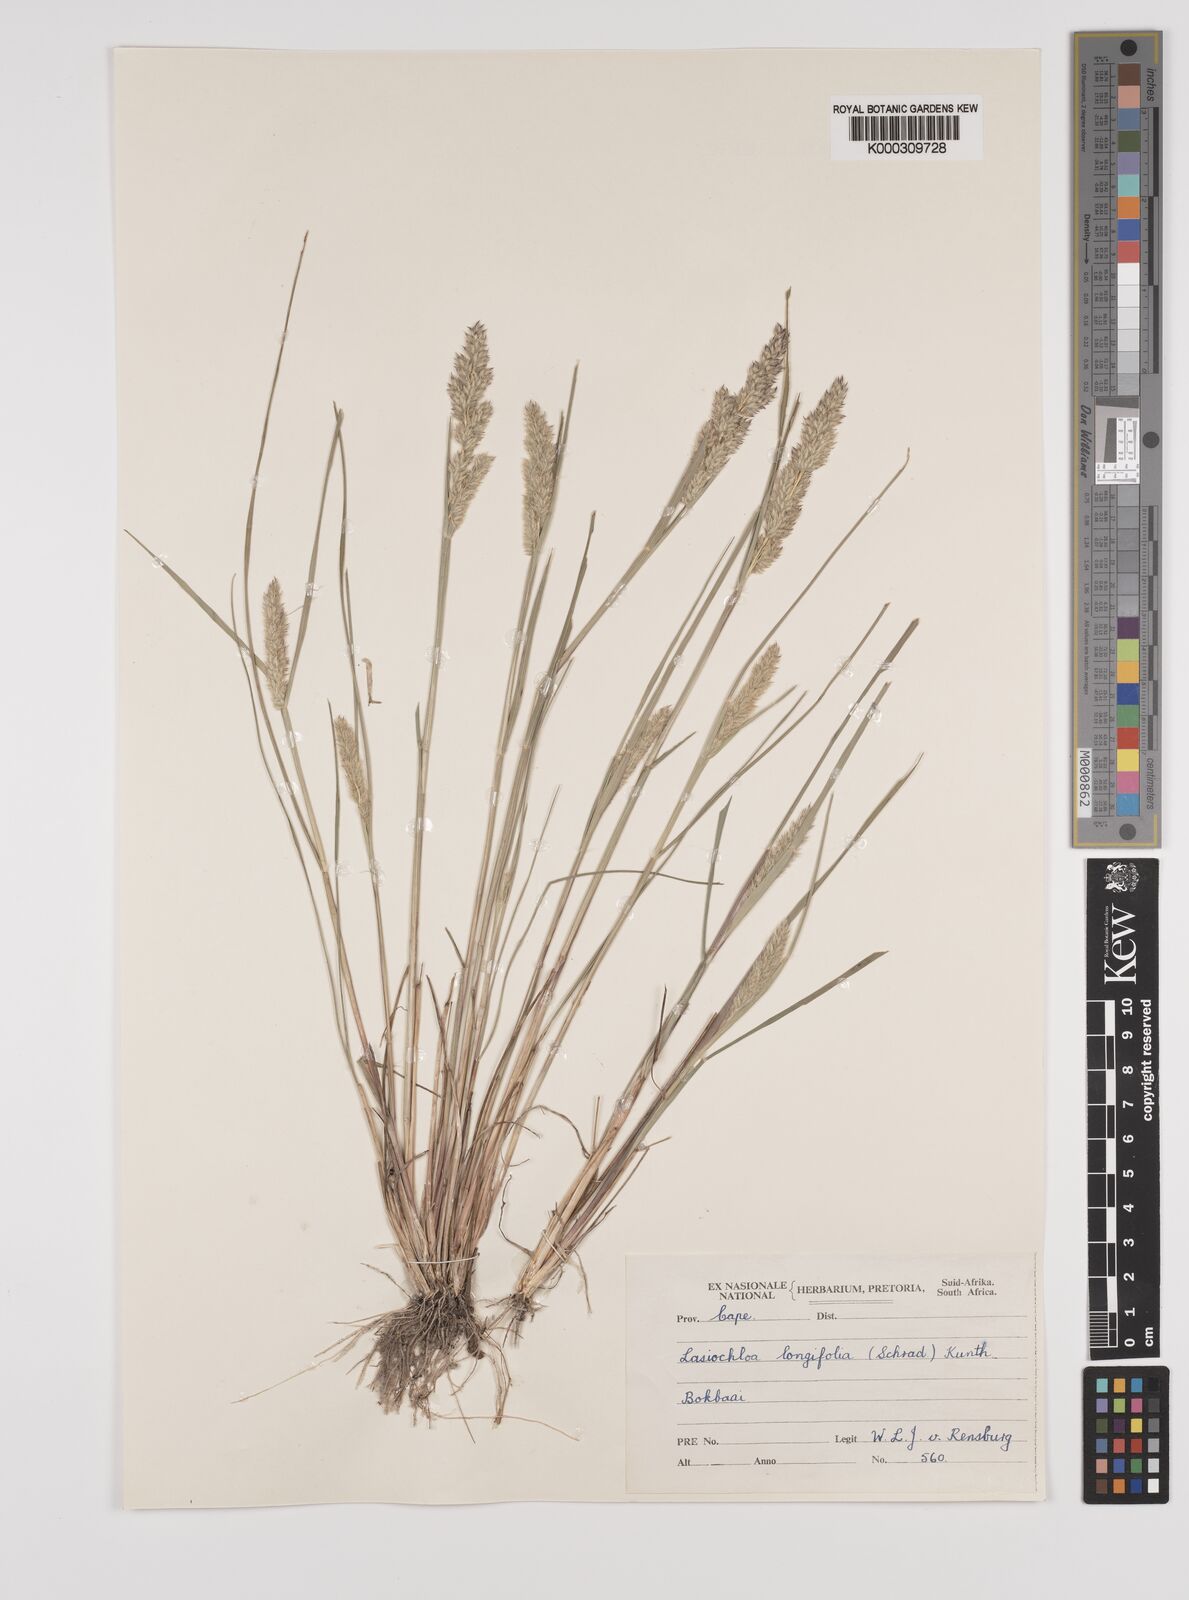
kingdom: Plantae
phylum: Tracheophyta
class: Liliopsida
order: Poales
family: Poaceae
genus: Tribolium
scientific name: Tribolium hispidum
